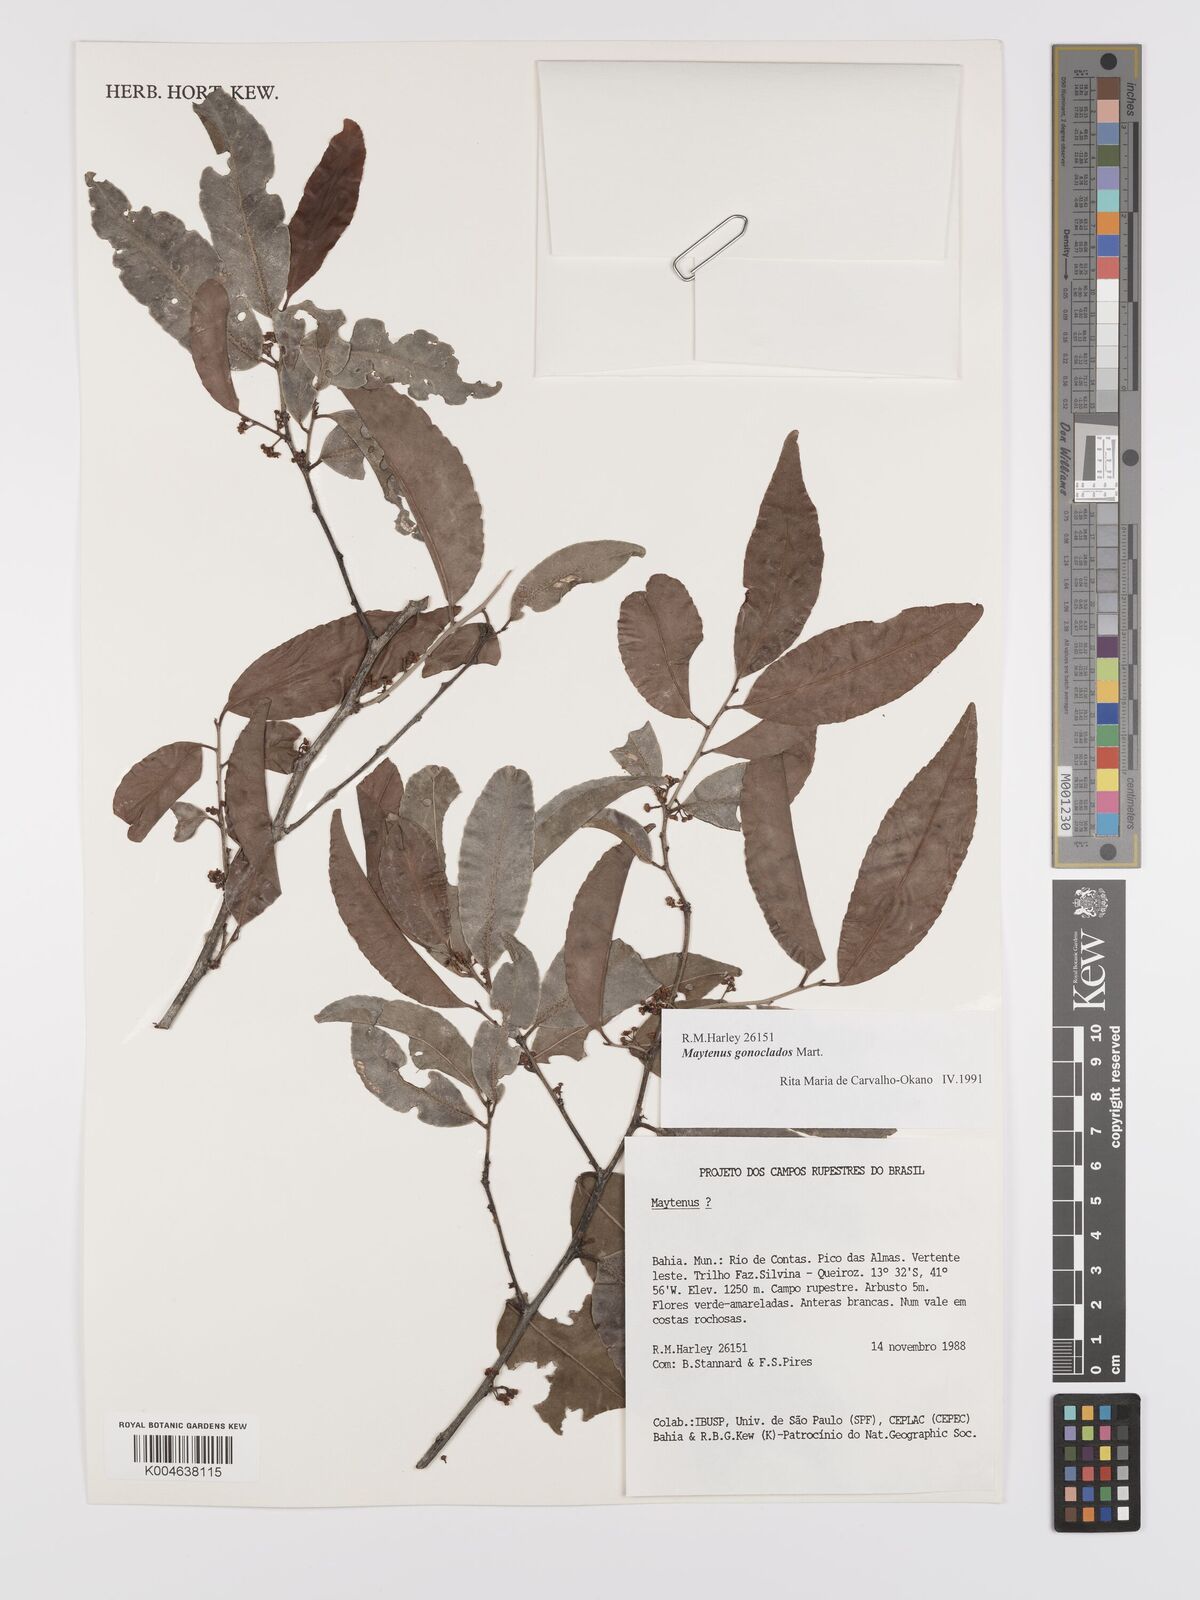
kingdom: Plantae
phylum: Tracheophyta
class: Magnoliopsida
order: Celastrales
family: Celastraceae
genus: Monteverdia
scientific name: Monteverdia gonoclada
